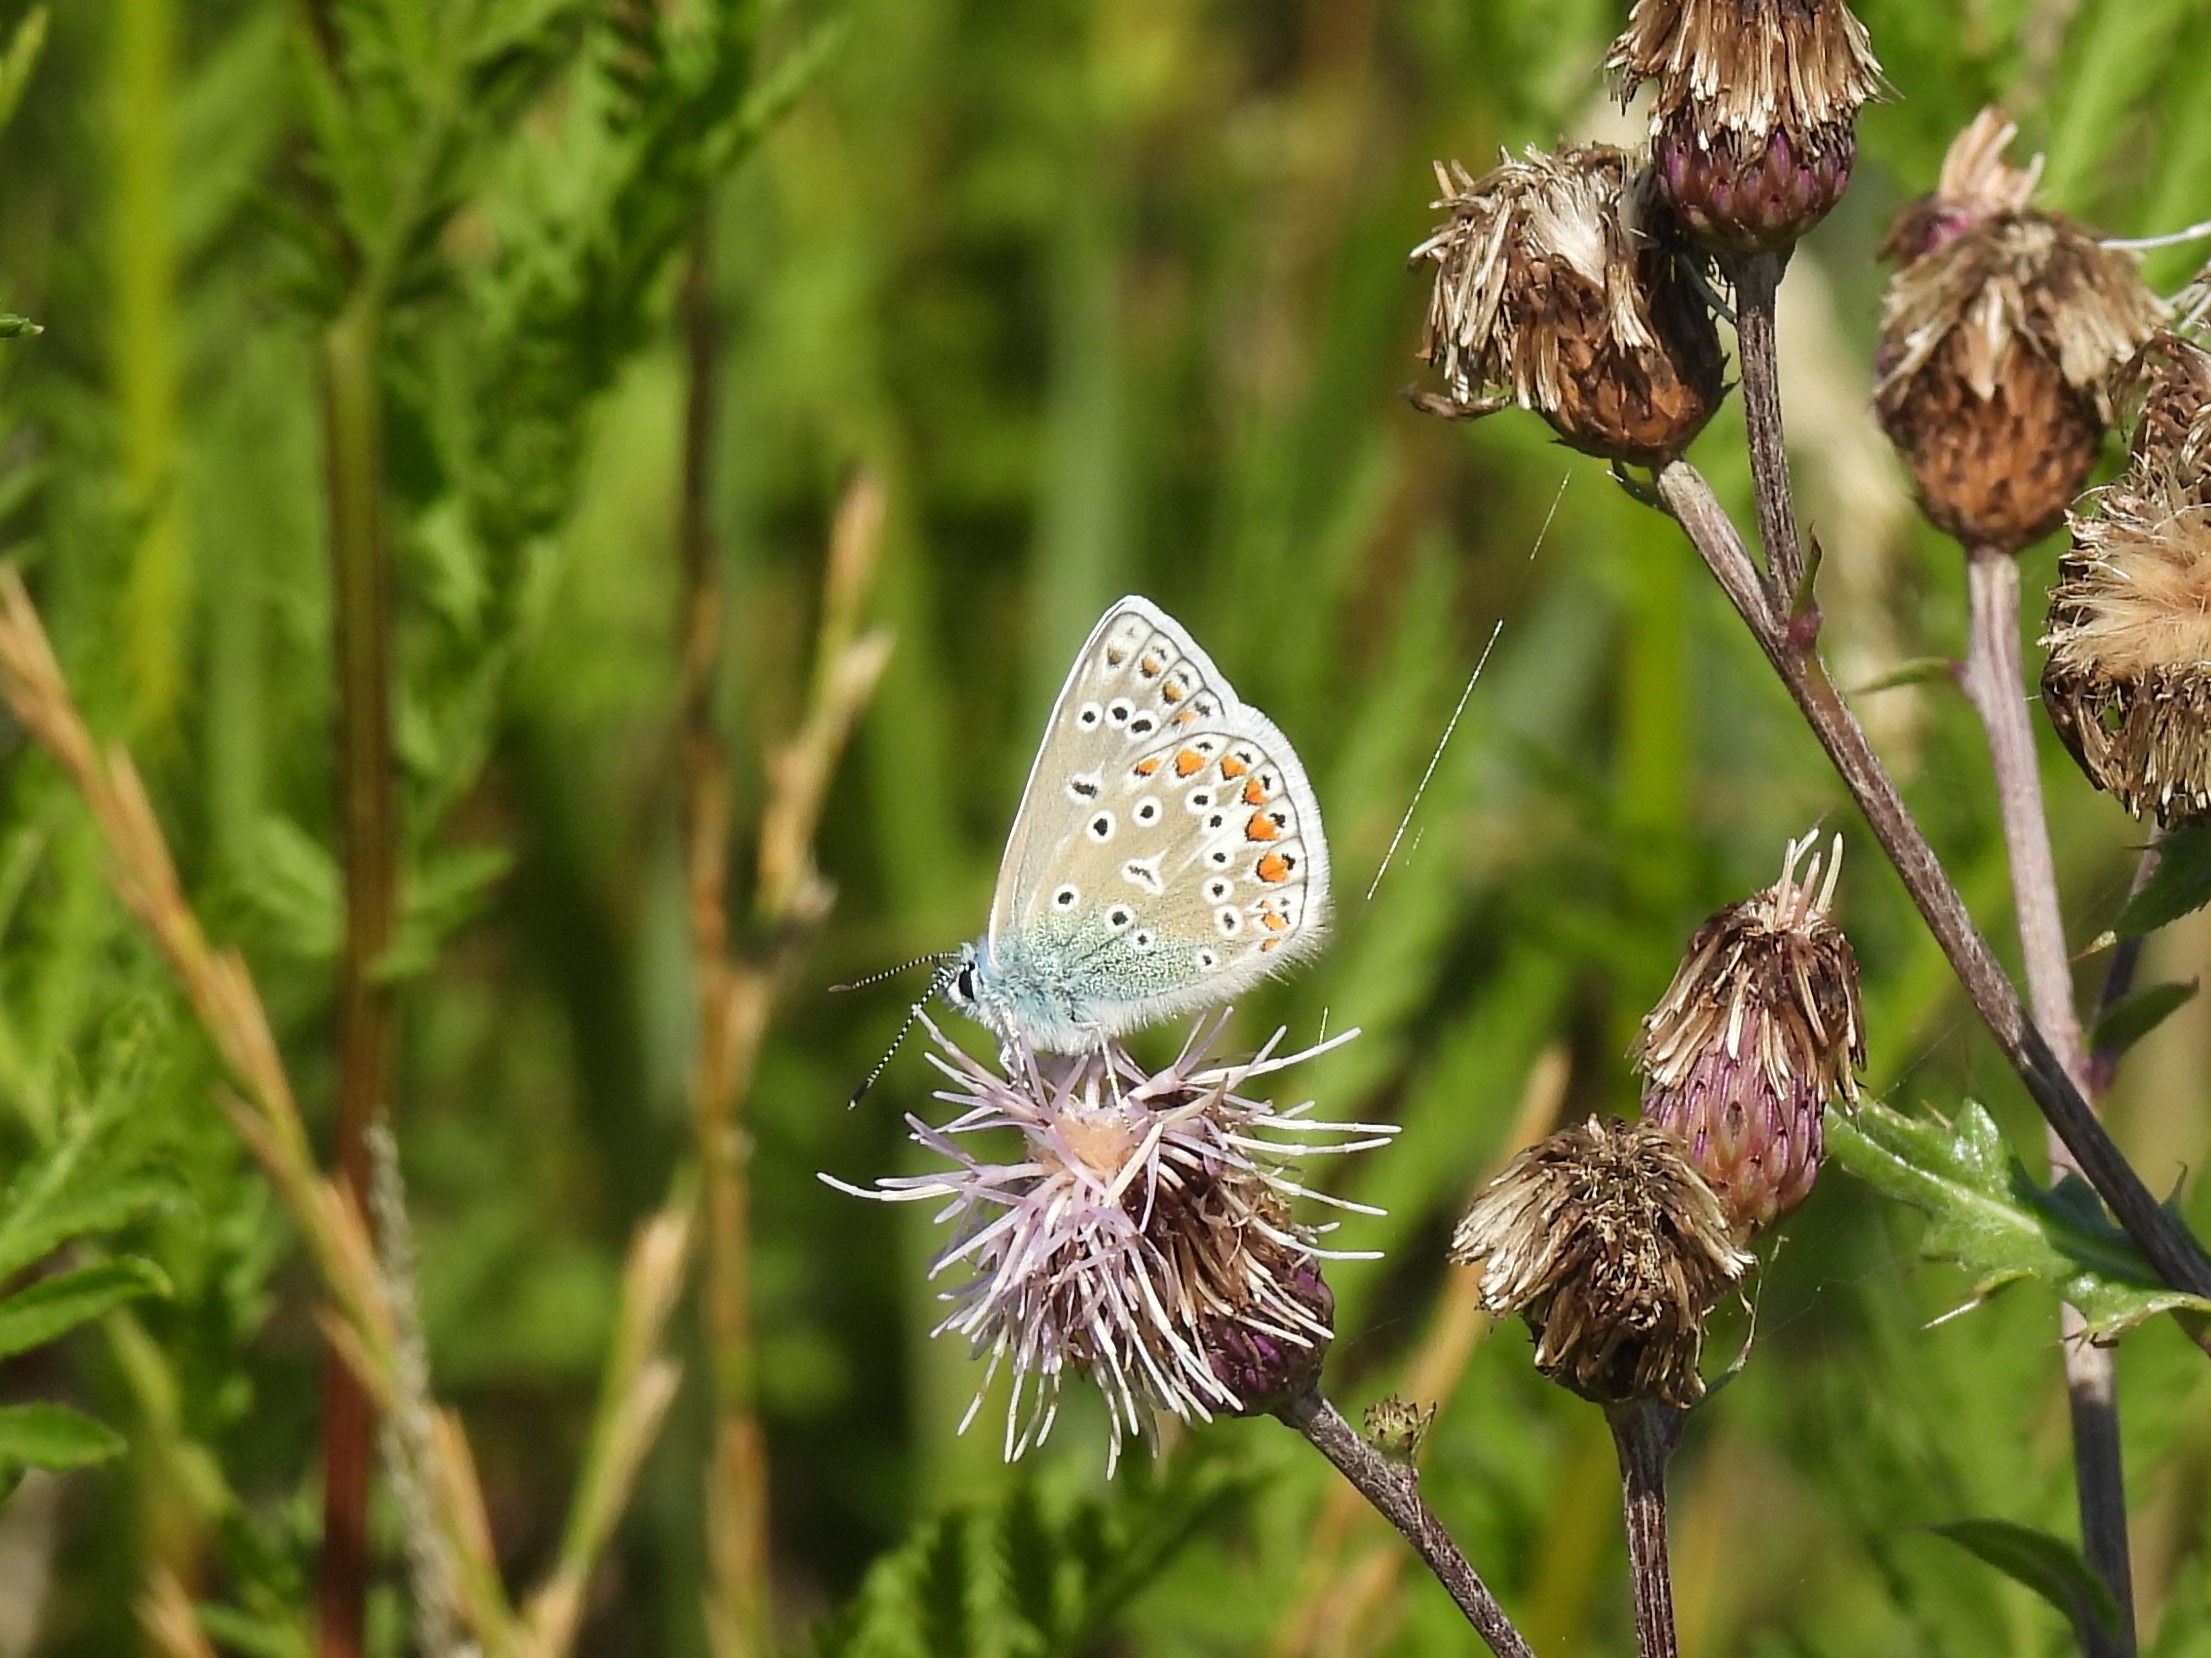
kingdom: Animalia
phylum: Arthropoda
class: Insecta
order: Lepidoptera
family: Lycaenidae
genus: Polyommatus
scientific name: Polyommatus icarus
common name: Almindelig blåfugl
